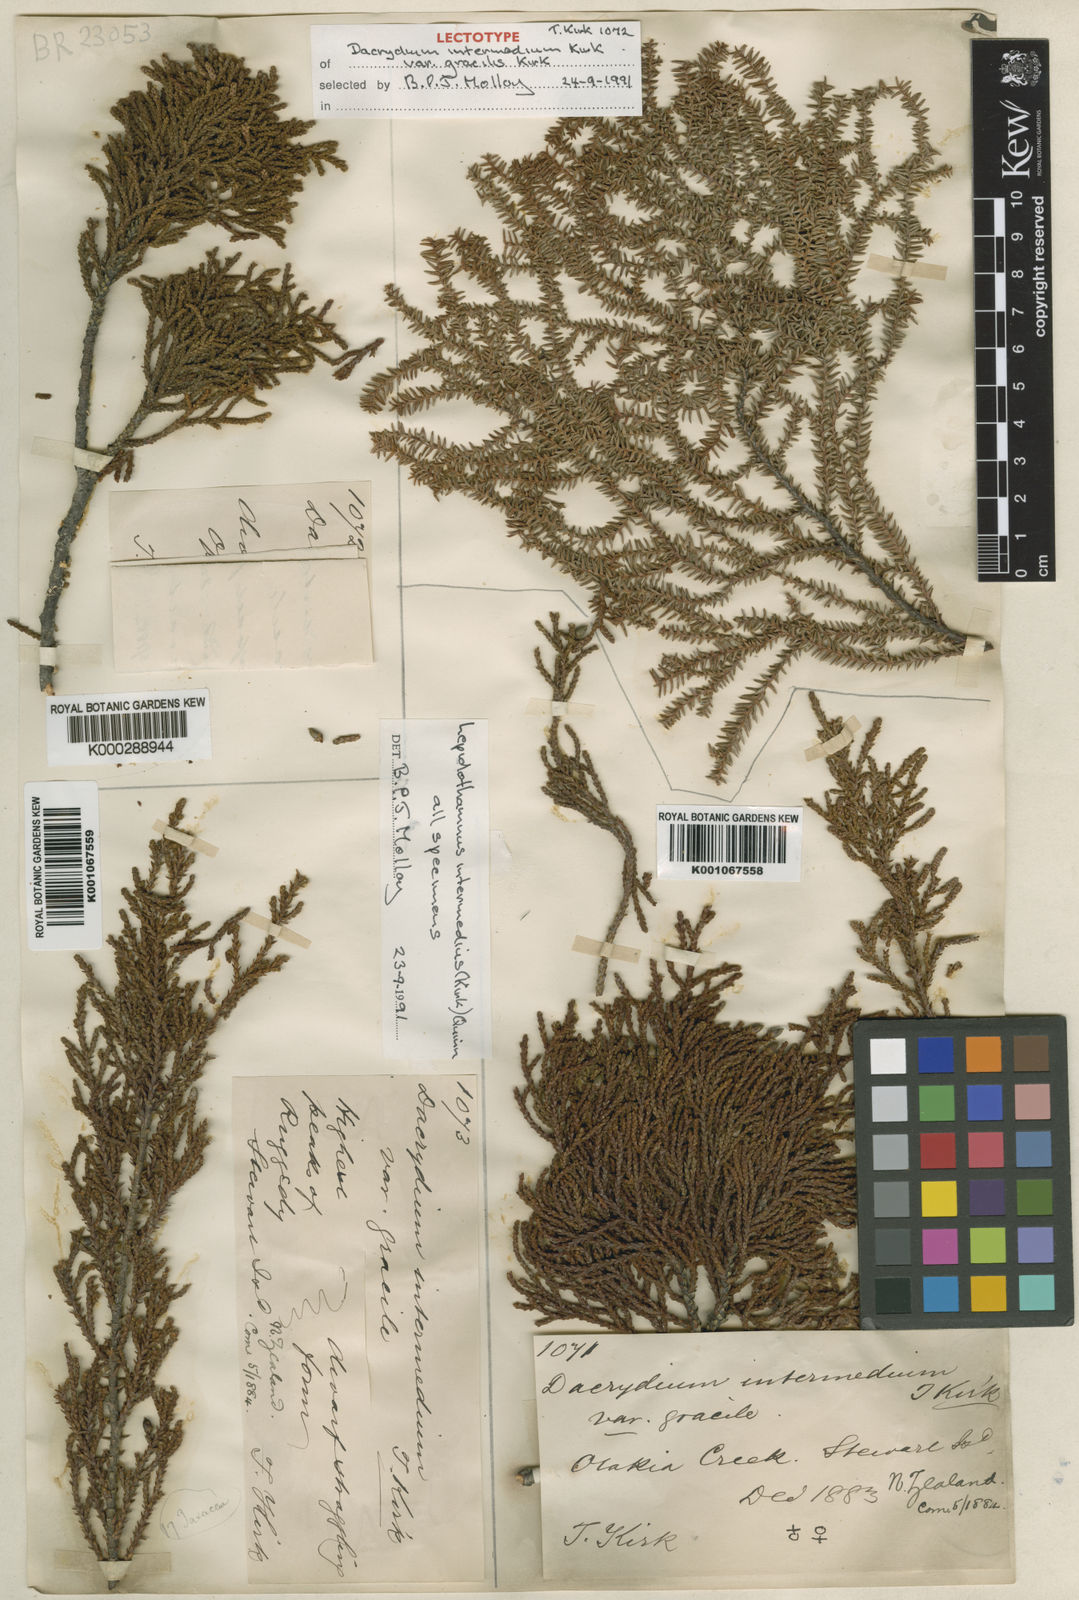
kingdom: Plantae
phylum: Tracheophyta
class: Pinopsida
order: Pinales
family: Podocarpaceae
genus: Lepidothamnus
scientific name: Lepidothamnus intermedius
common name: Yellow silver pine
